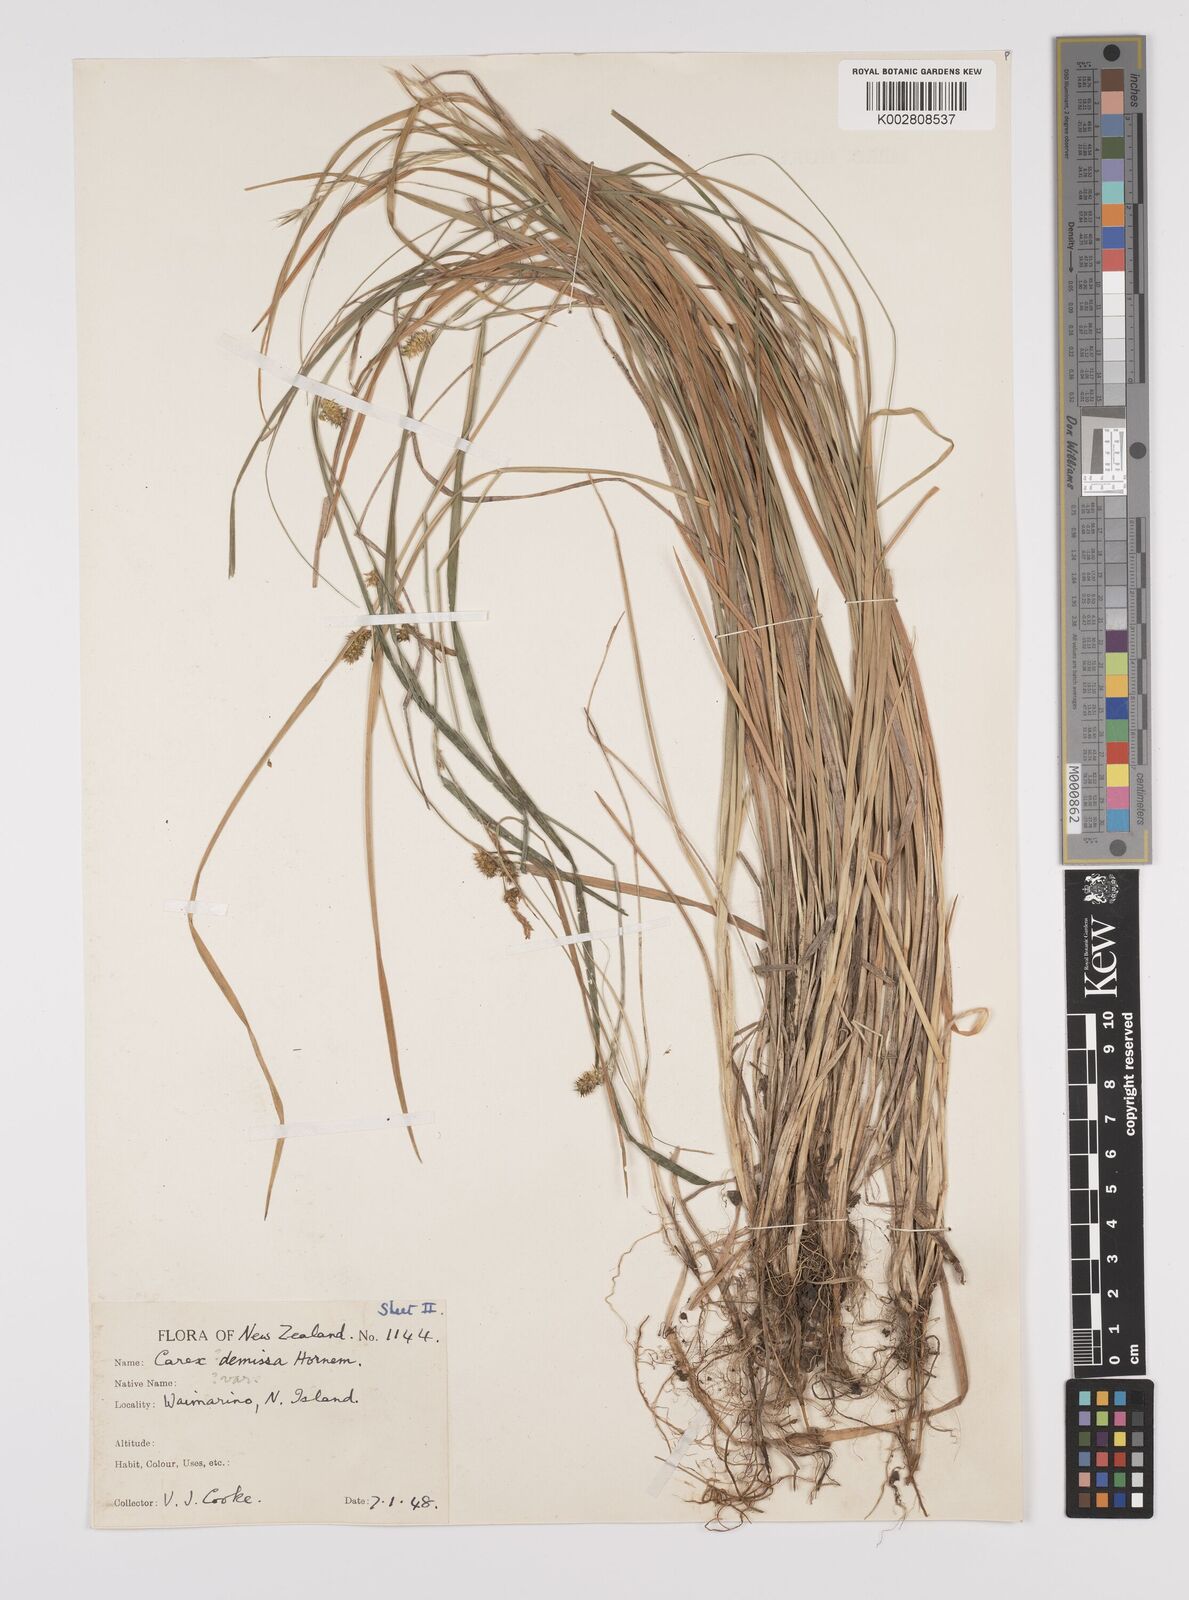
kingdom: Plantae
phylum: Tracheophyta
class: Liliopsida
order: Poales
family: Cyperaceae
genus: Carex
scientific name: Carex demissa
